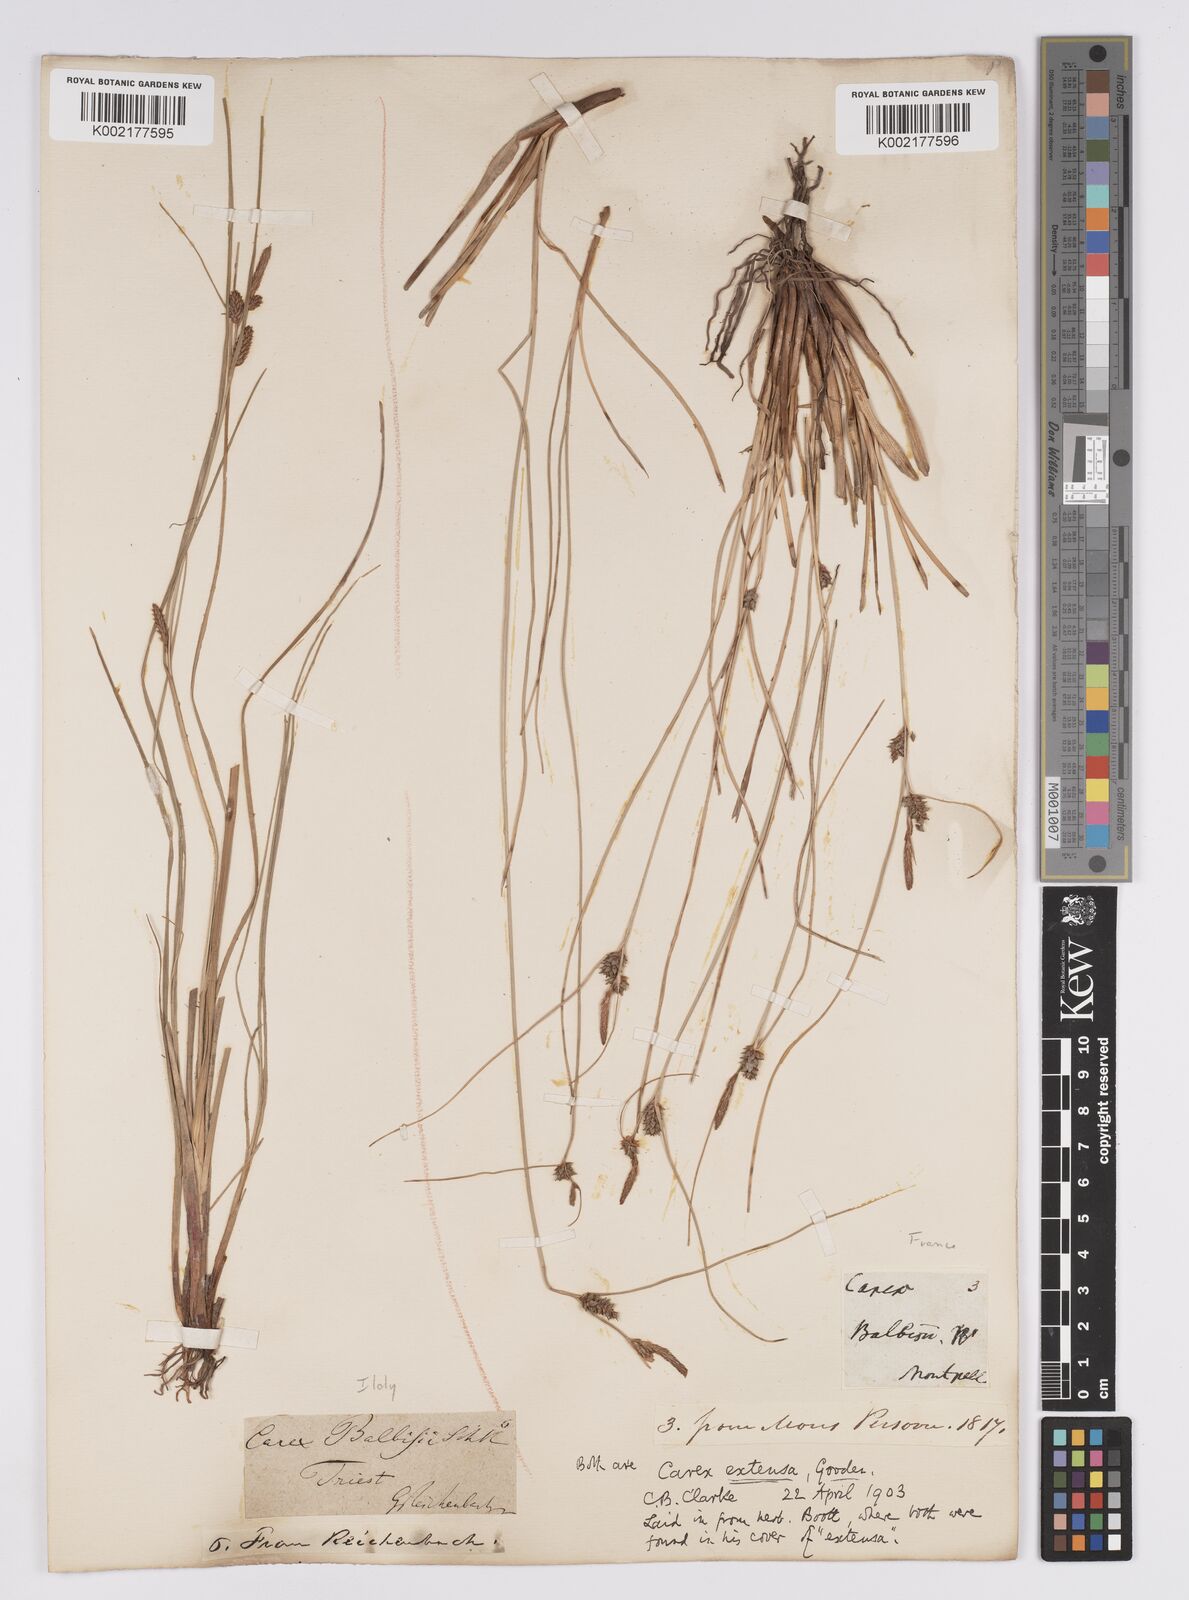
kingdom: Plantae
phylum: Tracheophyta
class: Liliopsida
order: Poales
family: Cyperaceae
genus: Carex
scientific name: Carex extensa
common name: Long-bracted sedge
